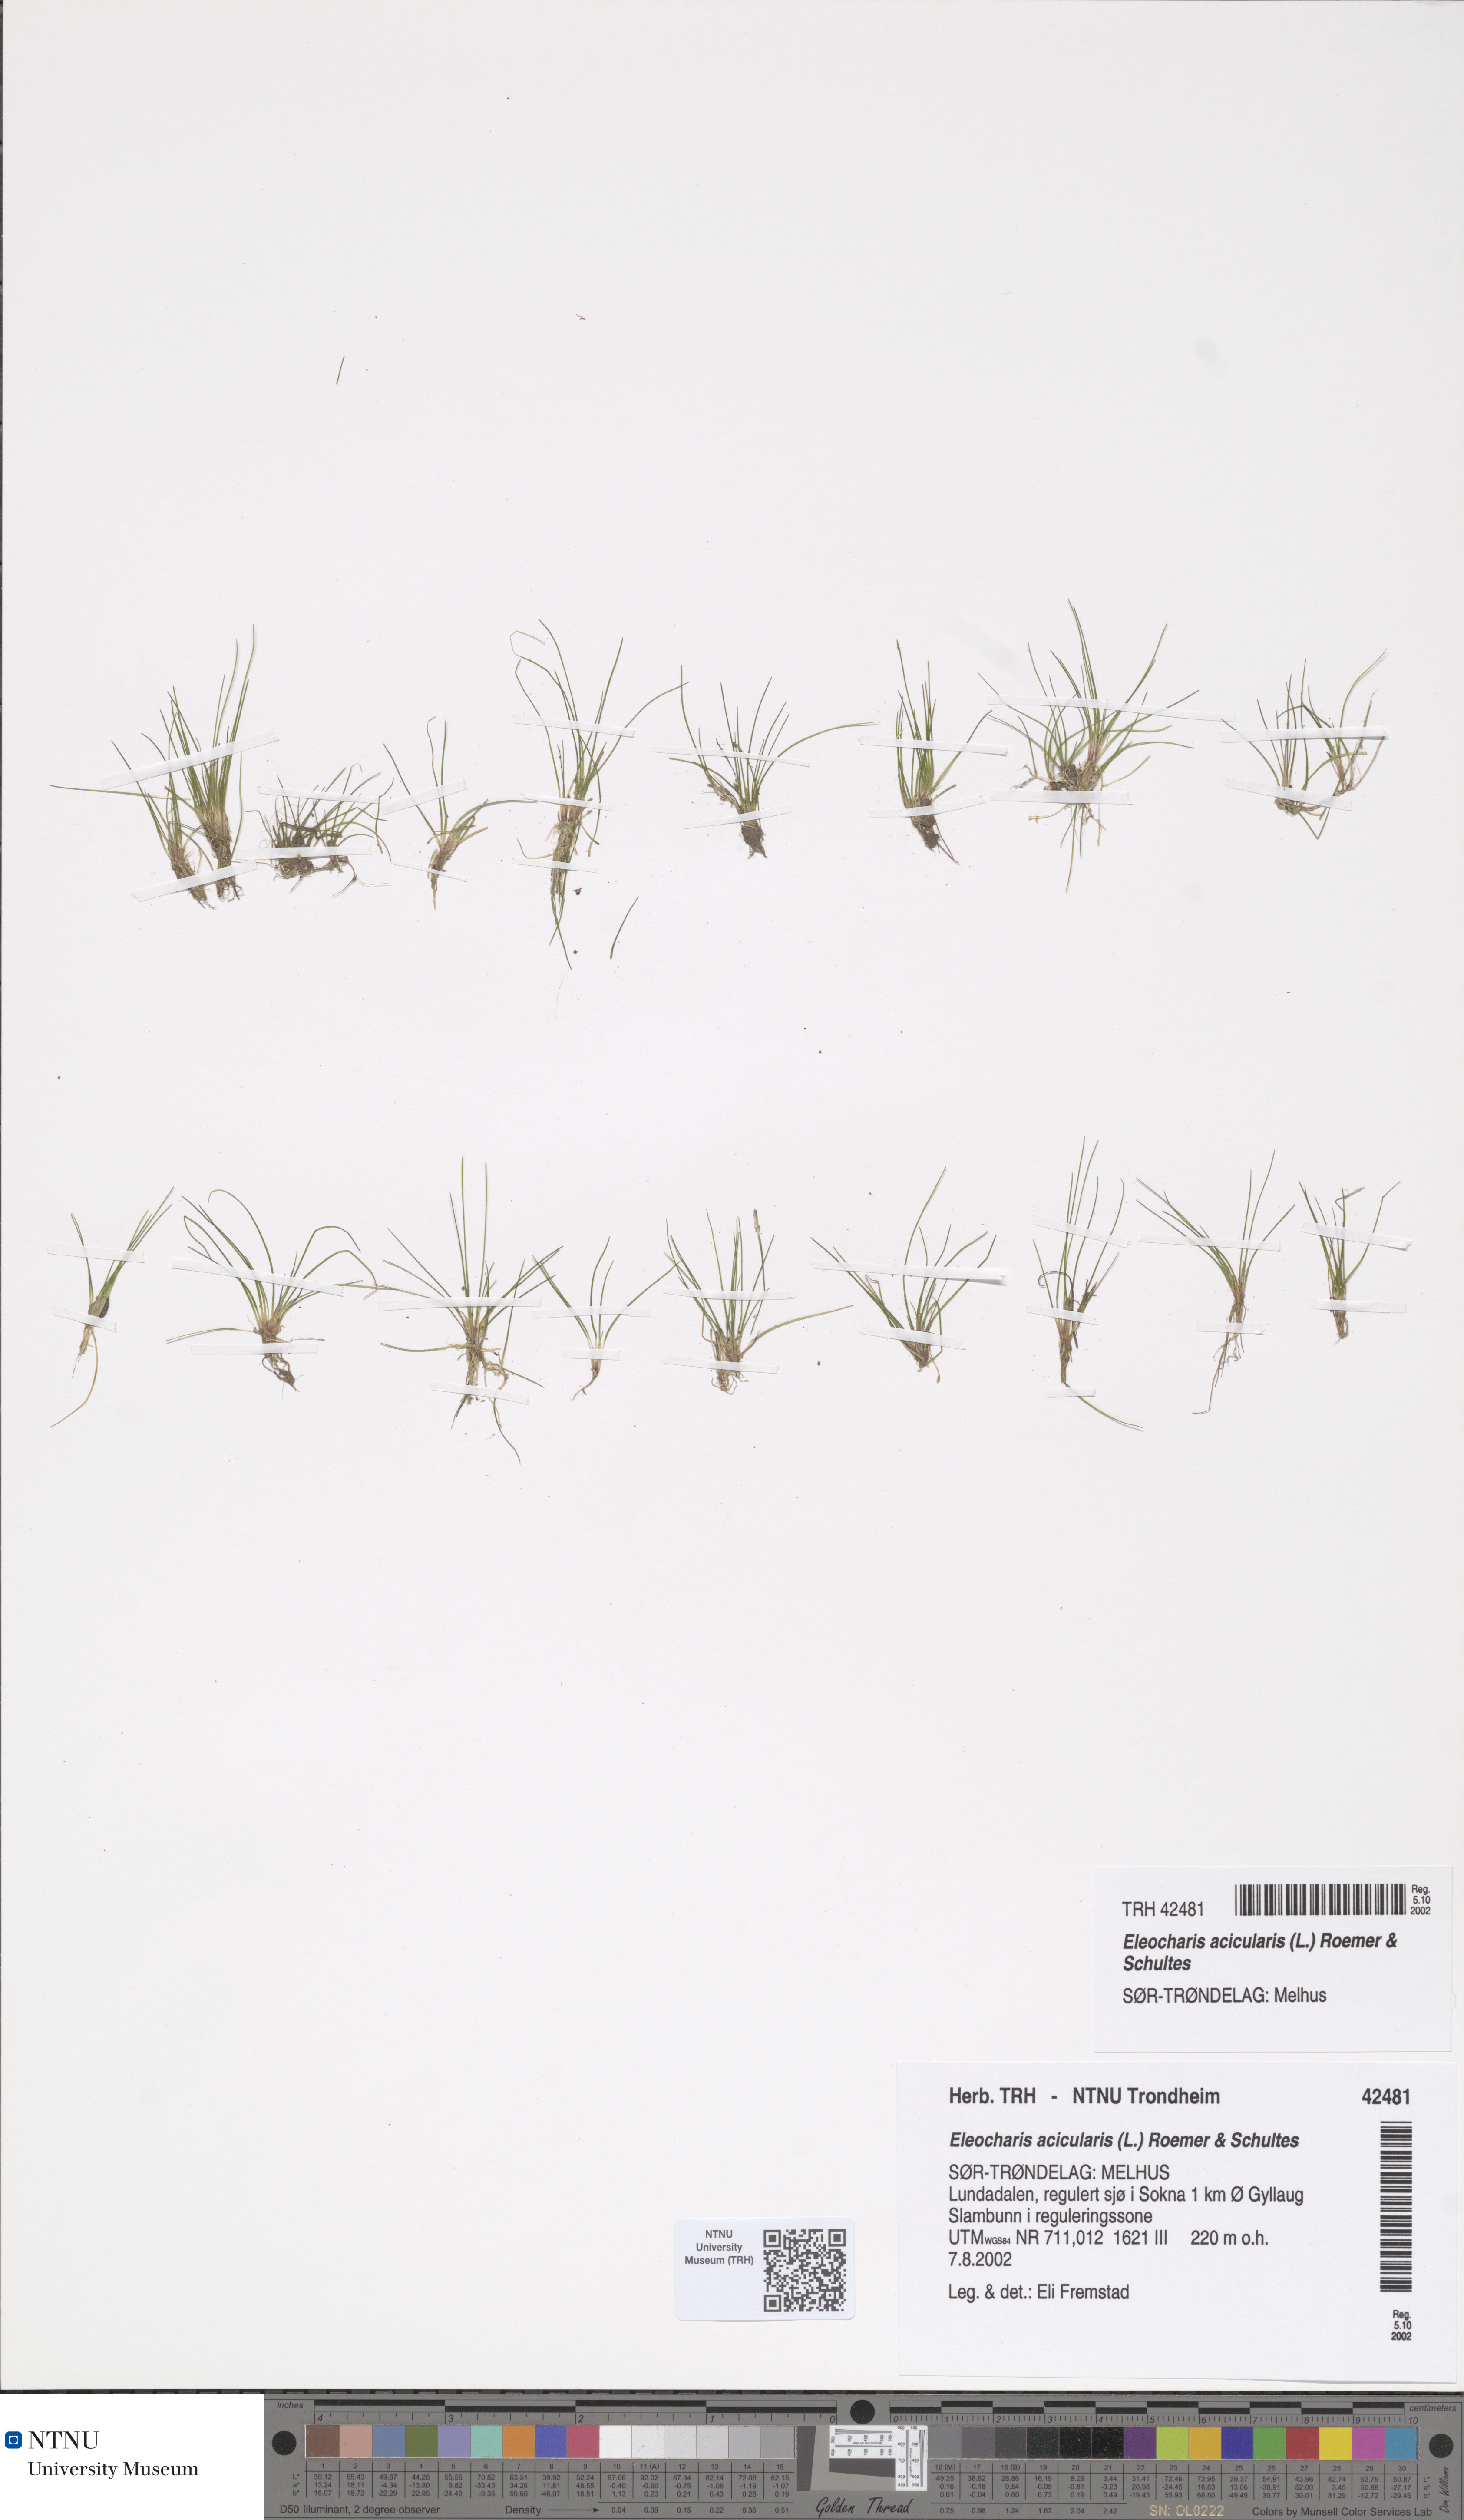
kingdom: Plantae
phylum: Tracheophyta
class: Liliopsida
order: Poales
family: Cyperaceae
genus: Eleocharis
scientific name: Eleocharis acicularis
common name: Needle spike-rush
